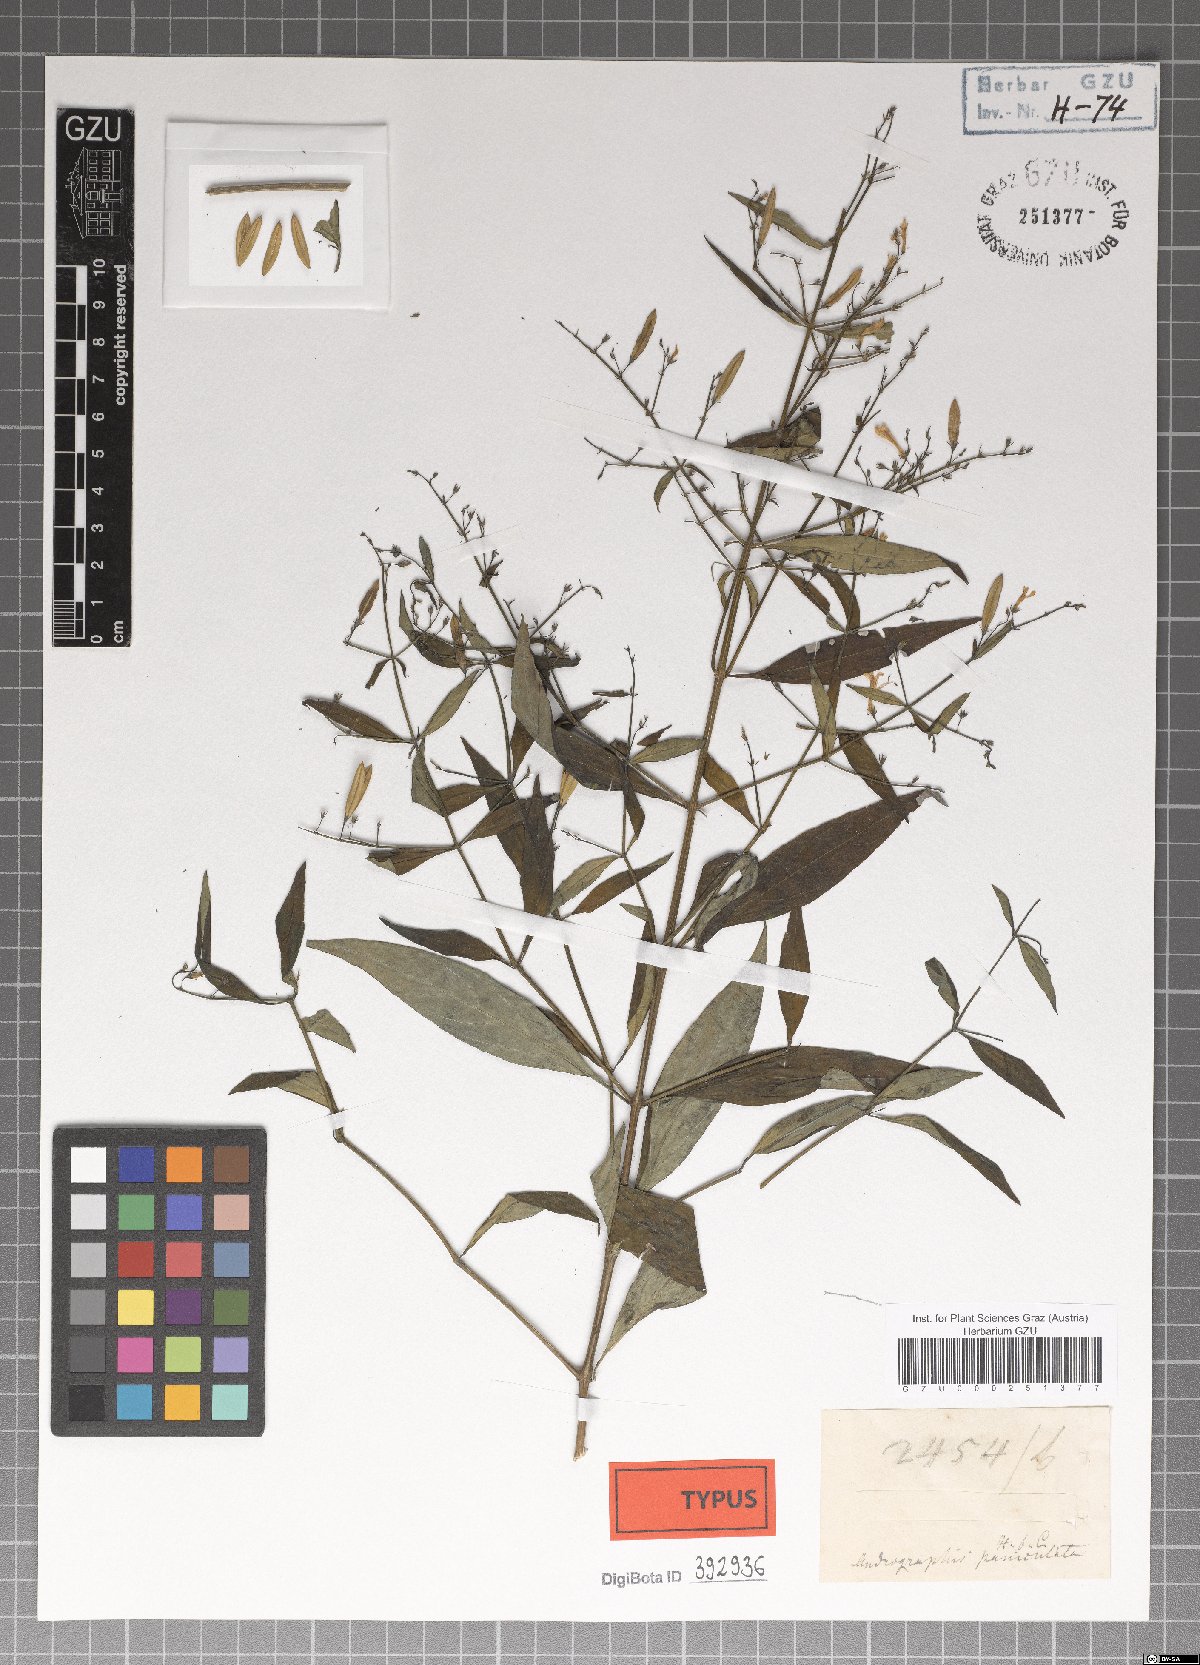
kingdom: Plantae
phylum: Tracheophyta
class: Magnoliopsida
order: Lamiales
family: Acanthaceae
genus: Andrographis
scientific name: Andrographis paniculata
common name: Green chireta
